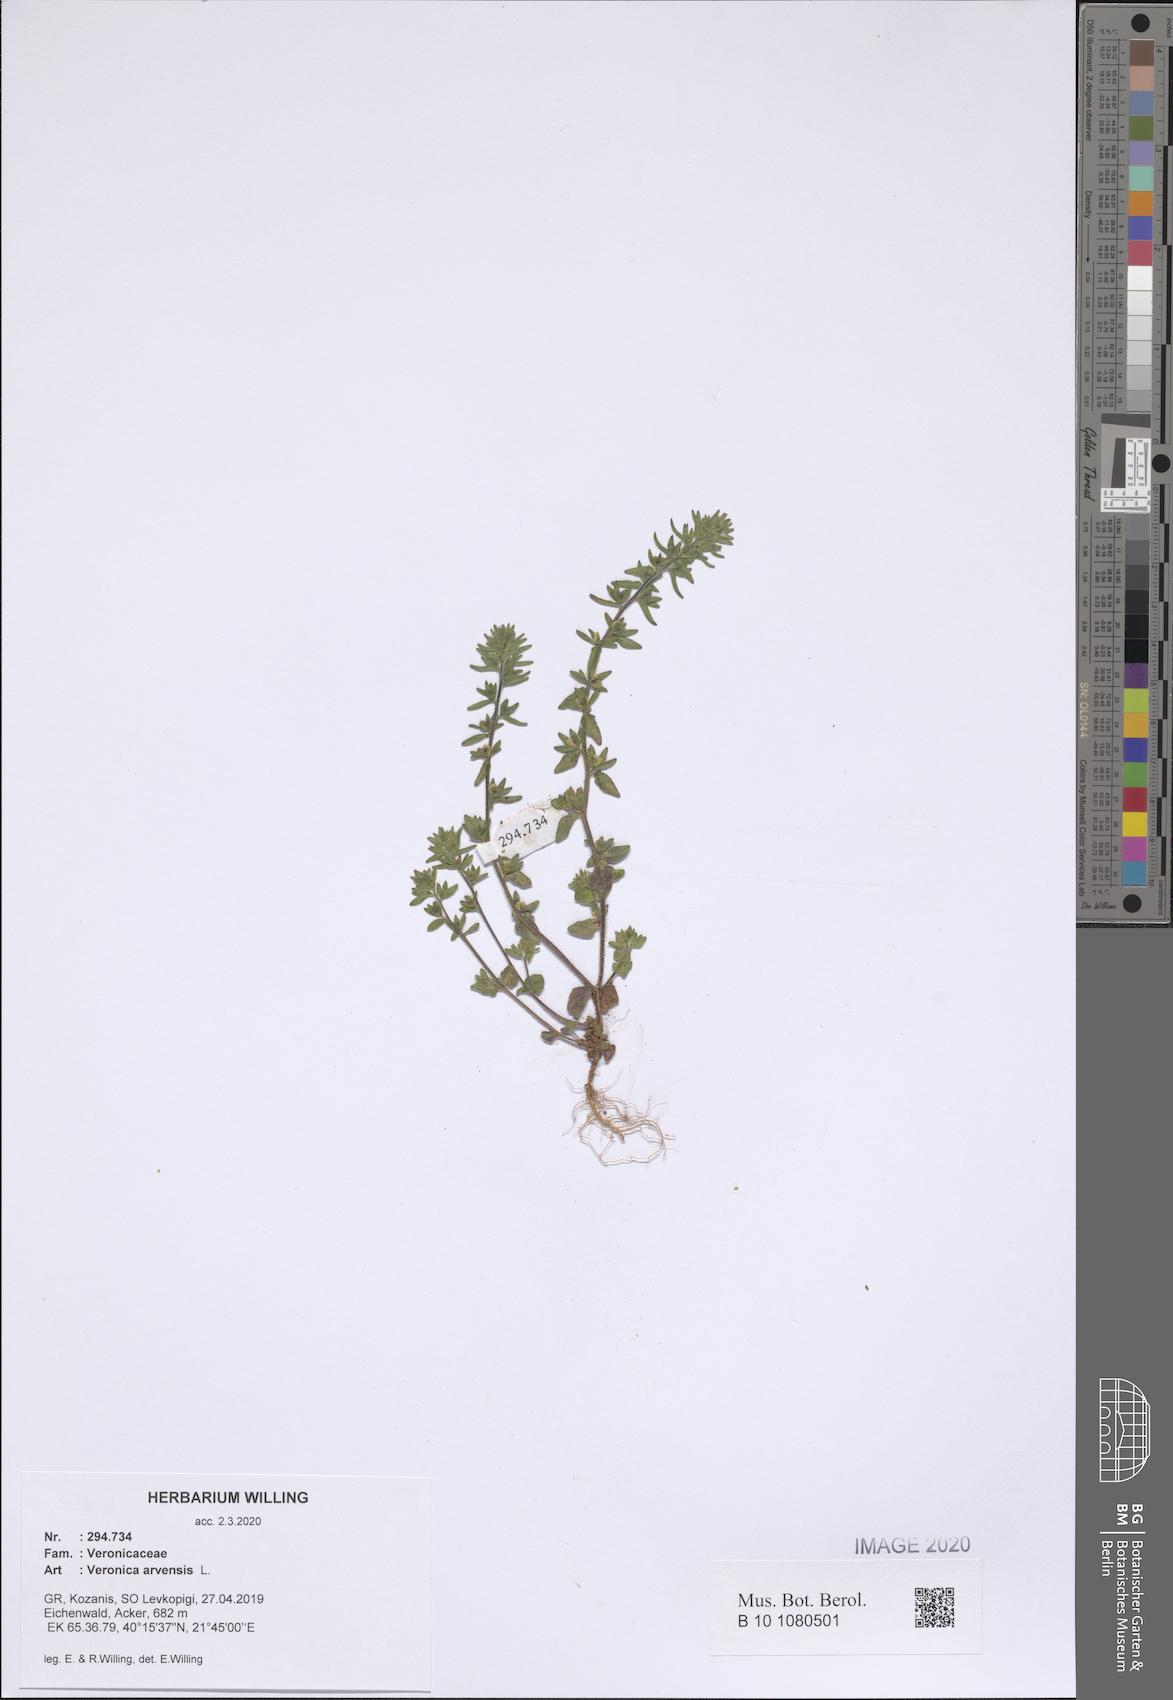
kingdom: Plantae
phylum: Tracheophyta
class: Magnoliopsida
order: Lamiales
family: Plantaginaceae
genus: Veronica
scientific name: Veronica arvensis
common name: Corn speedwell
